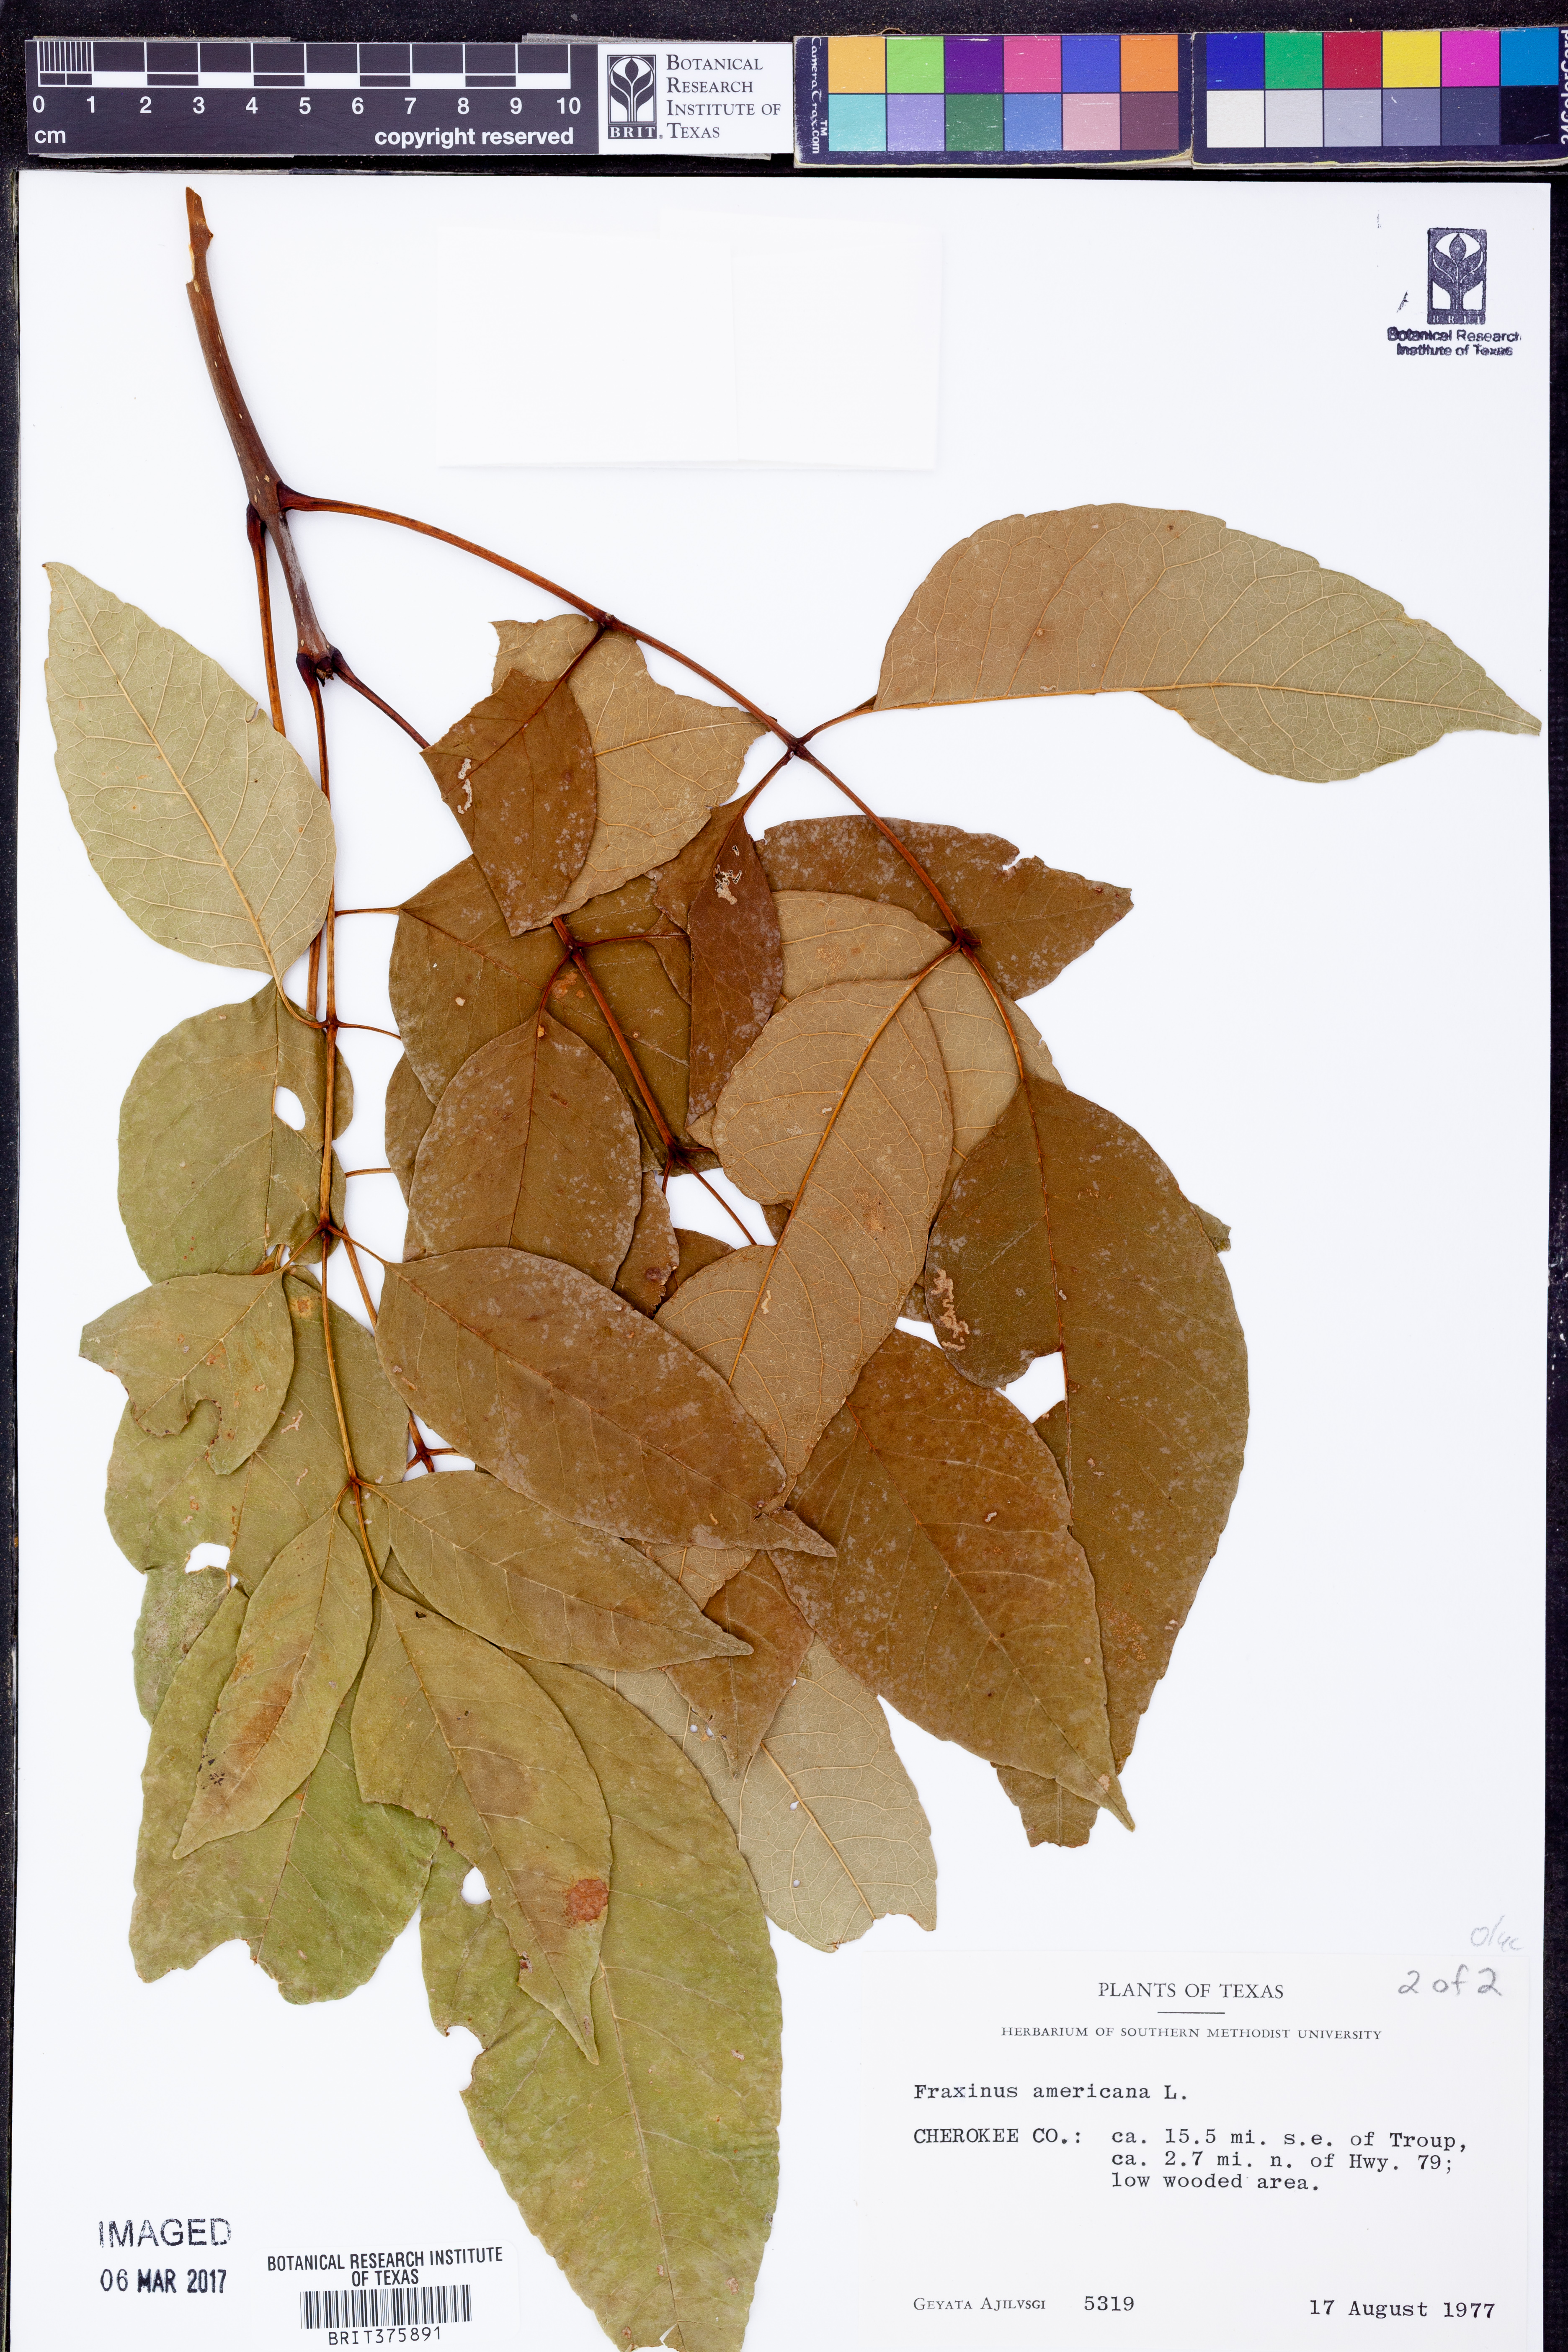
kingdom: Plantae
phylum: Tracheophyta
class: Magnoliopsida
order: Lamiales
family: Oleaceae
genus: Fraxinus
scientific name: Fraxinus americana
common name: White ash
